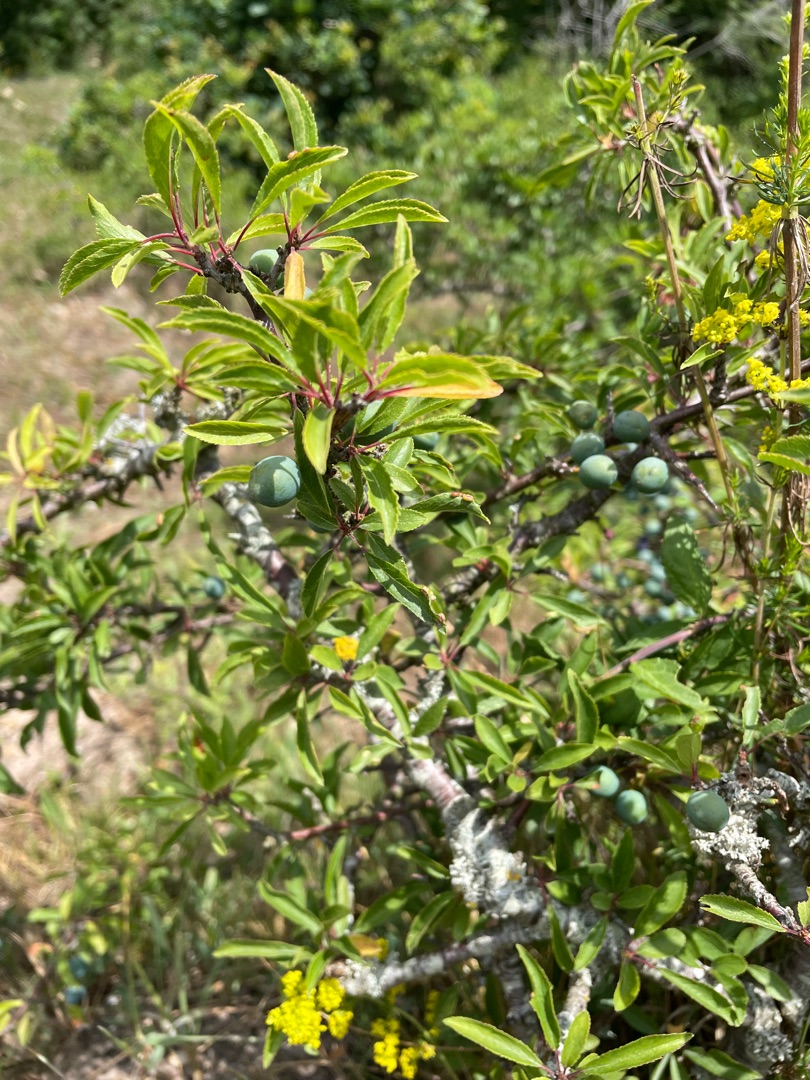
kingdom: Plantae
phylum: Tracheophyta
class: Magnoliopsida
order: Rosales
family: Rosaceae
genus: Prunus
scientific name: Prunus spinosa
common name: Slåen
